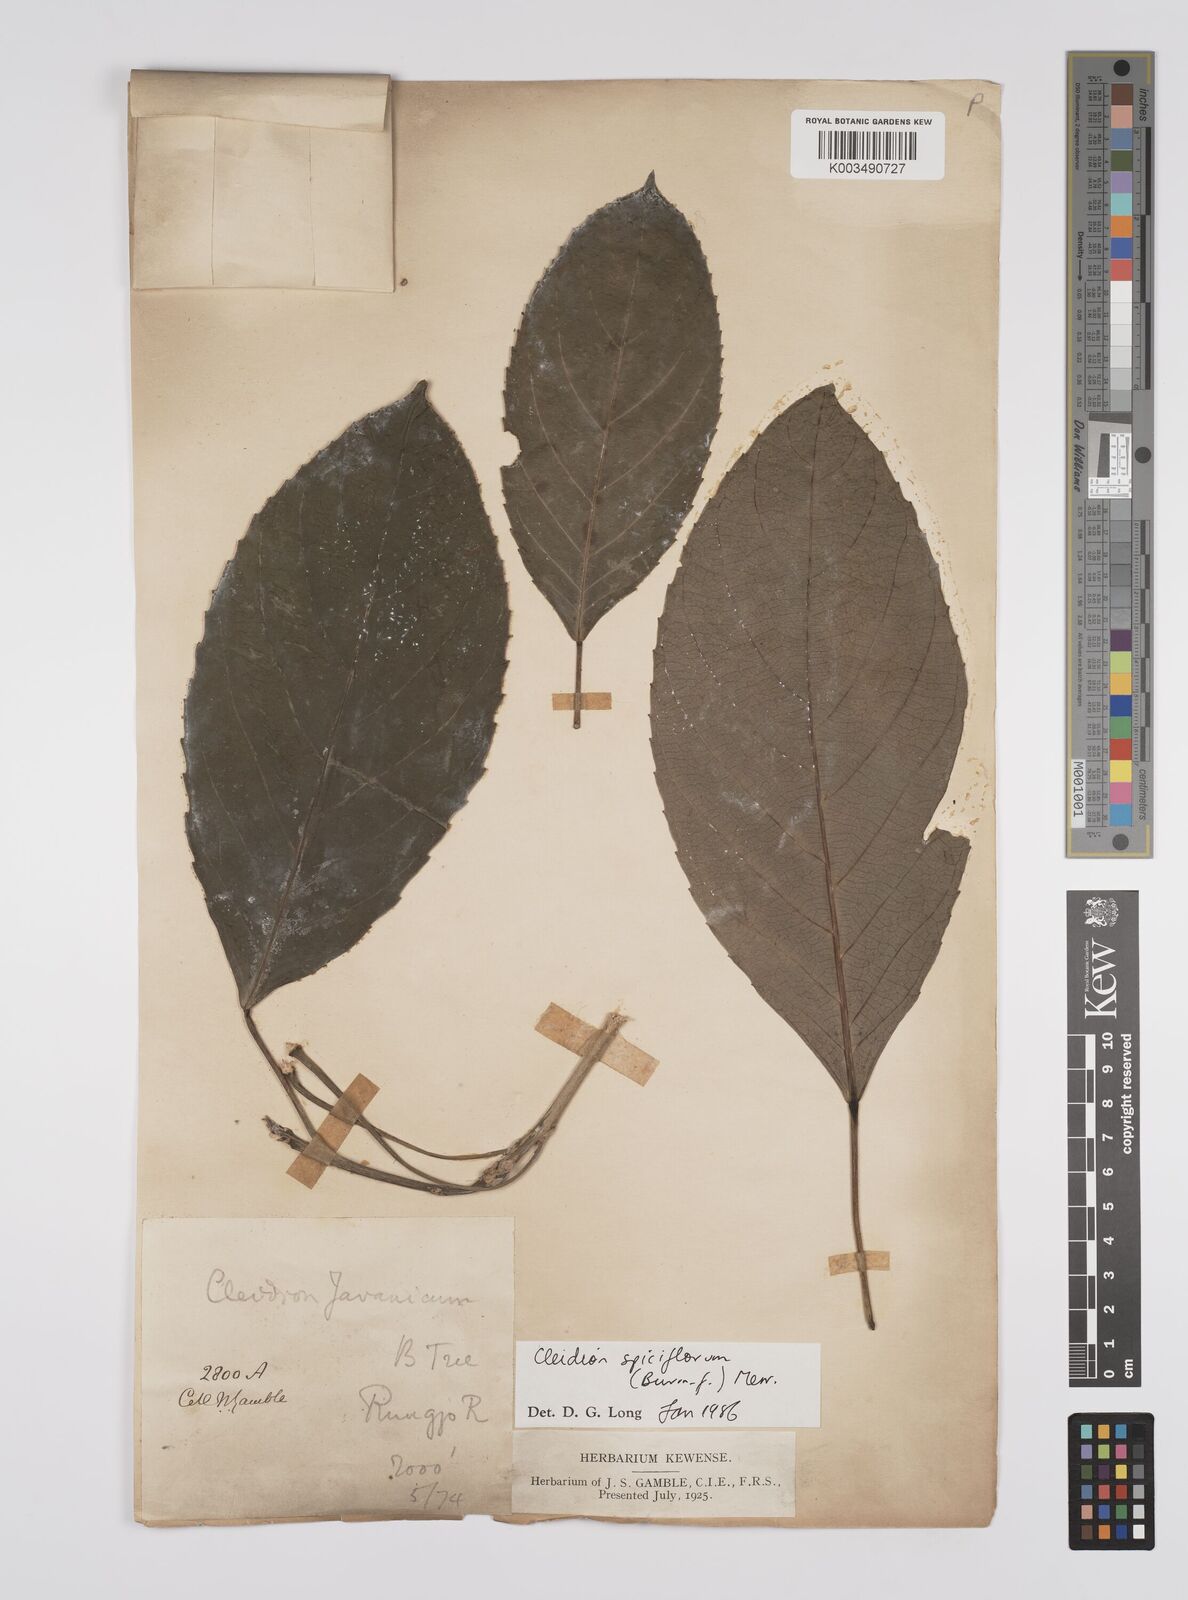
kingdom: Plantae
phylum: Tracheophyta
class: Magnoliopsida
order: Malpighiales
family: Euphorbiaceae
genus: Acalypha
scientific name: Acalypha spiciflora
